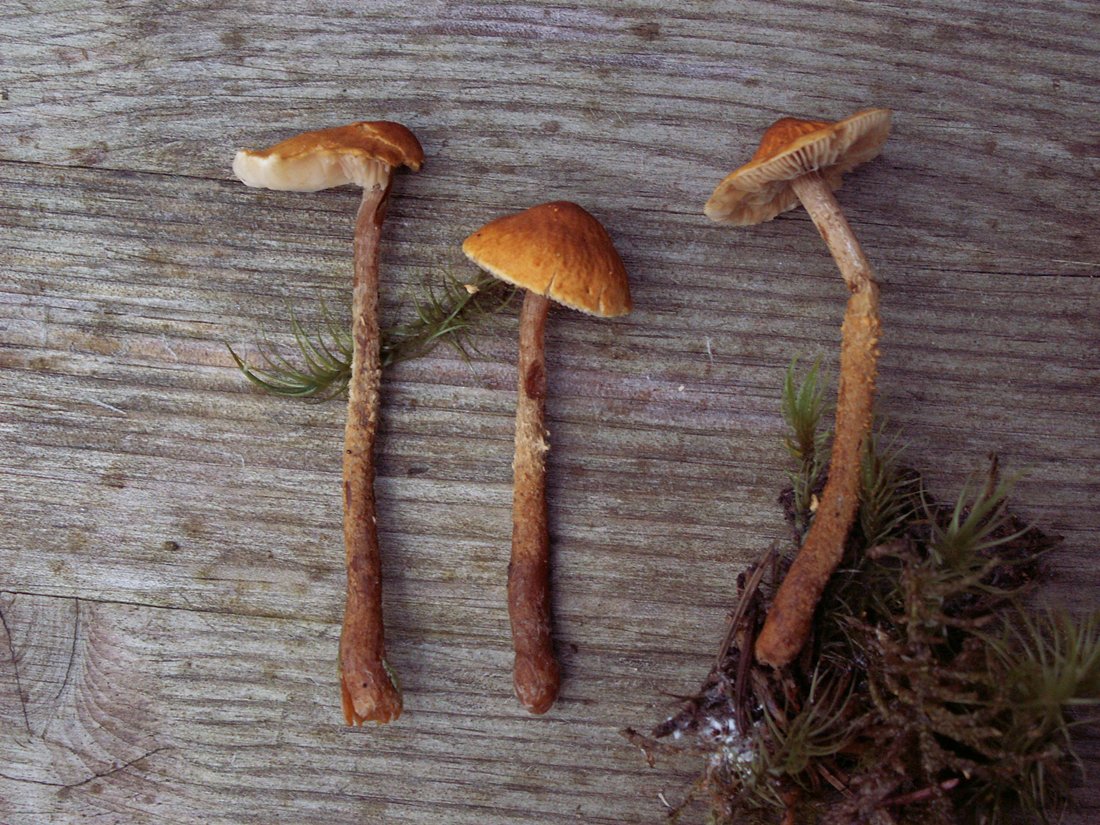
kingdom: Fungi
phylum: Basidiomycota
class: Agaricomycetes
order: Agaricales
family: Tricholomataceae
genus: Cystoderma
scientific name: Cystoderma jasonis
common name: gulkødet grynhat
